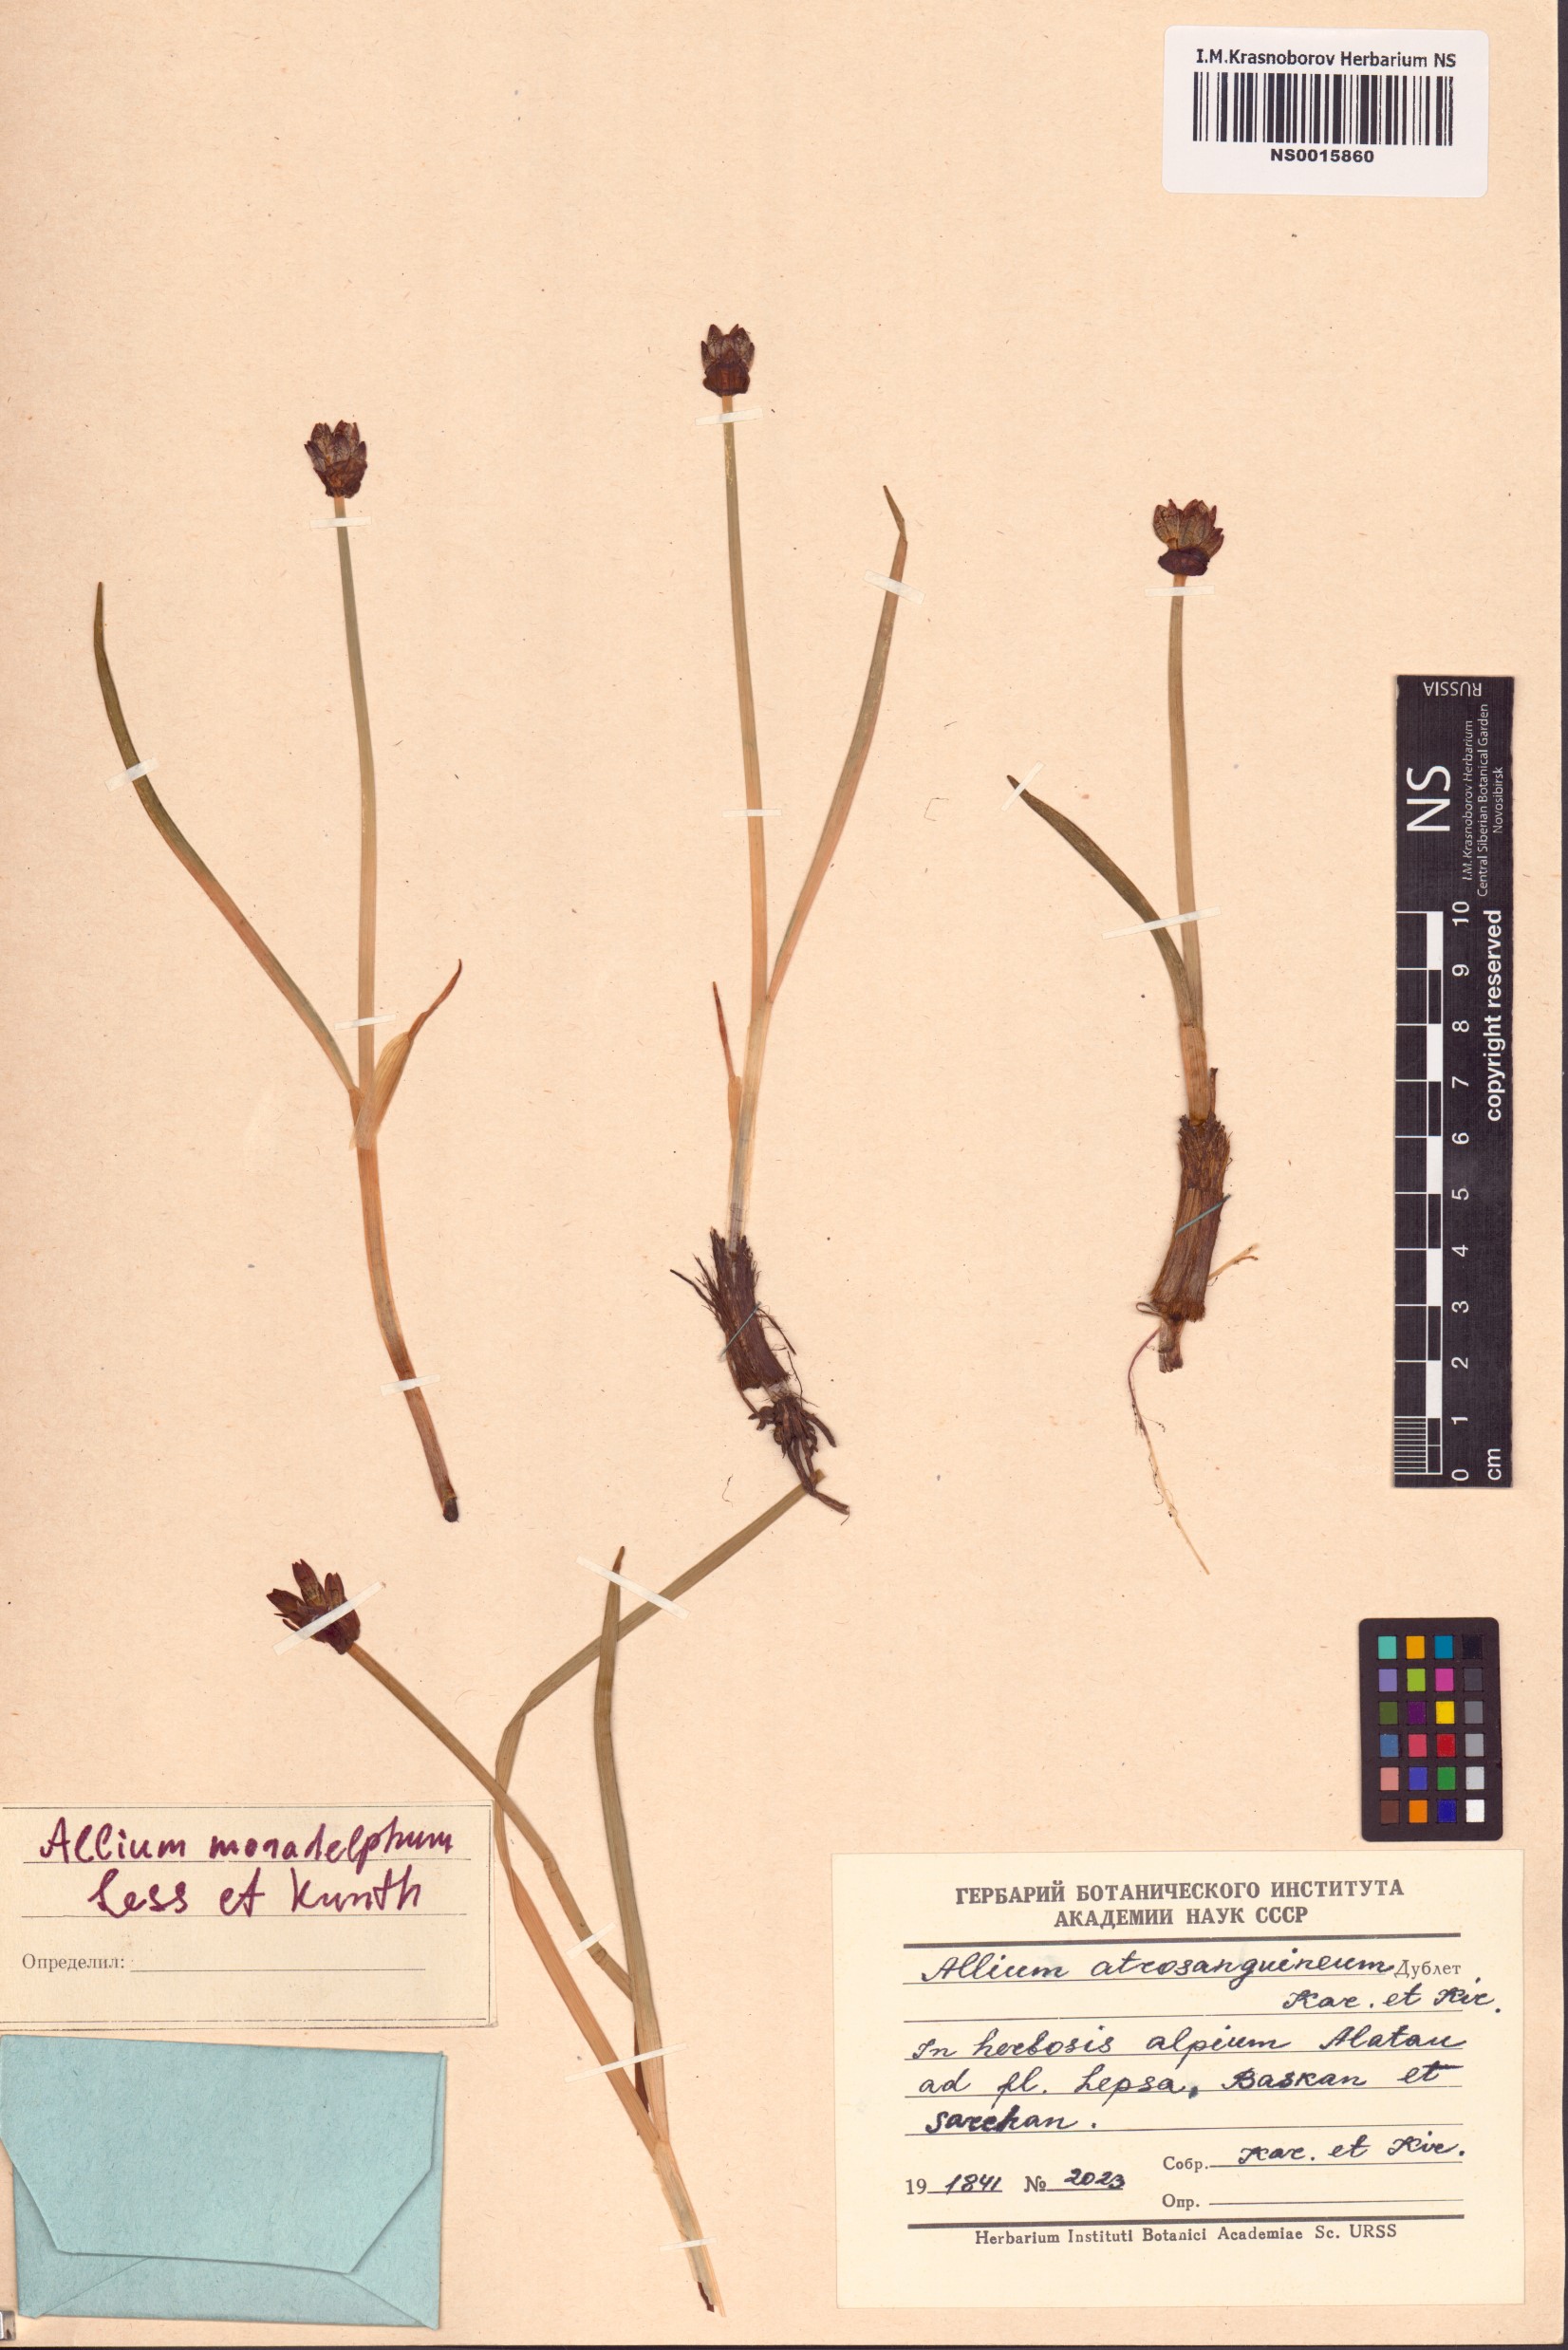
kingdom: Plantae
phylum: Tracheophyta
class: Liliopsida
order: Asparagales
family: Amaryllidaceae
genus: Allium
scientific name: Allium atrosanguineum
